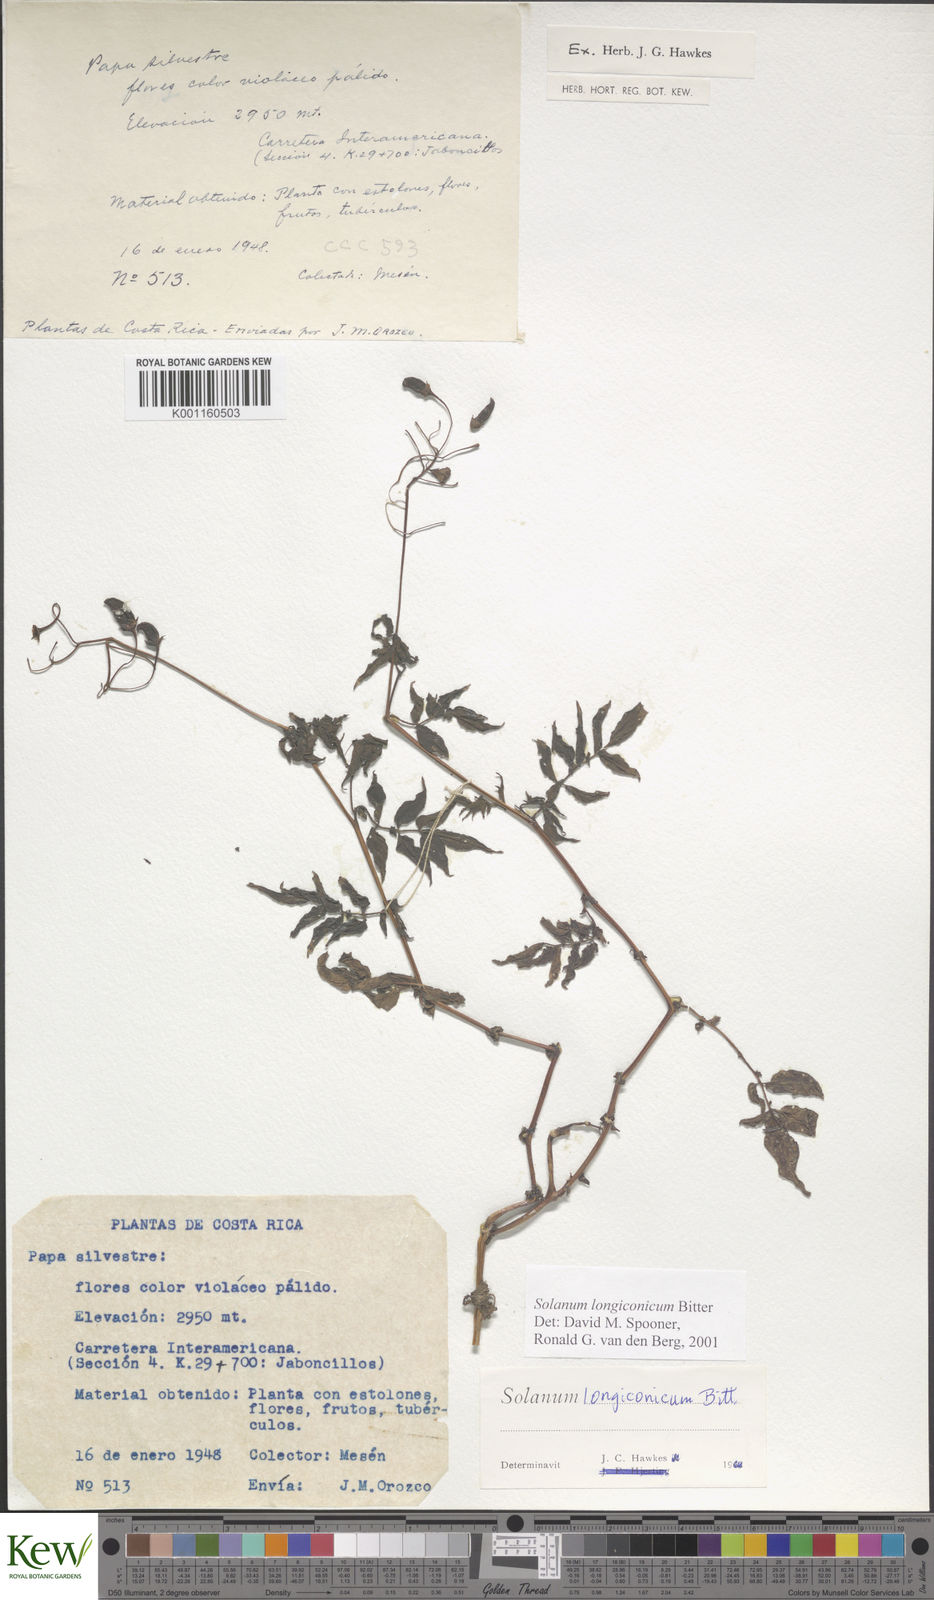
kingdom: Plantae
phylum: Tracheophyta
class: Magnoliopsida
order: Solanales
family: Solanaceae
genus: Solanum
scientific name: Solanum longiconicum
